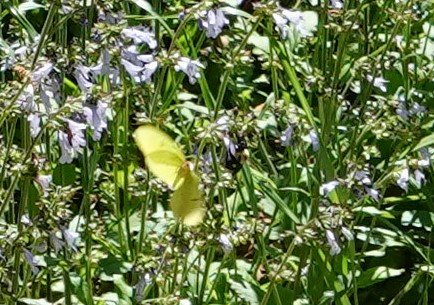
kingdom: Animalia
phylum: Arthropoda
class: Insecta
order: Lepidoptera
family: Pieridae
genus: Phoebis
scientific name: Phoebis sennae
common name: Cloudless Sulphur
